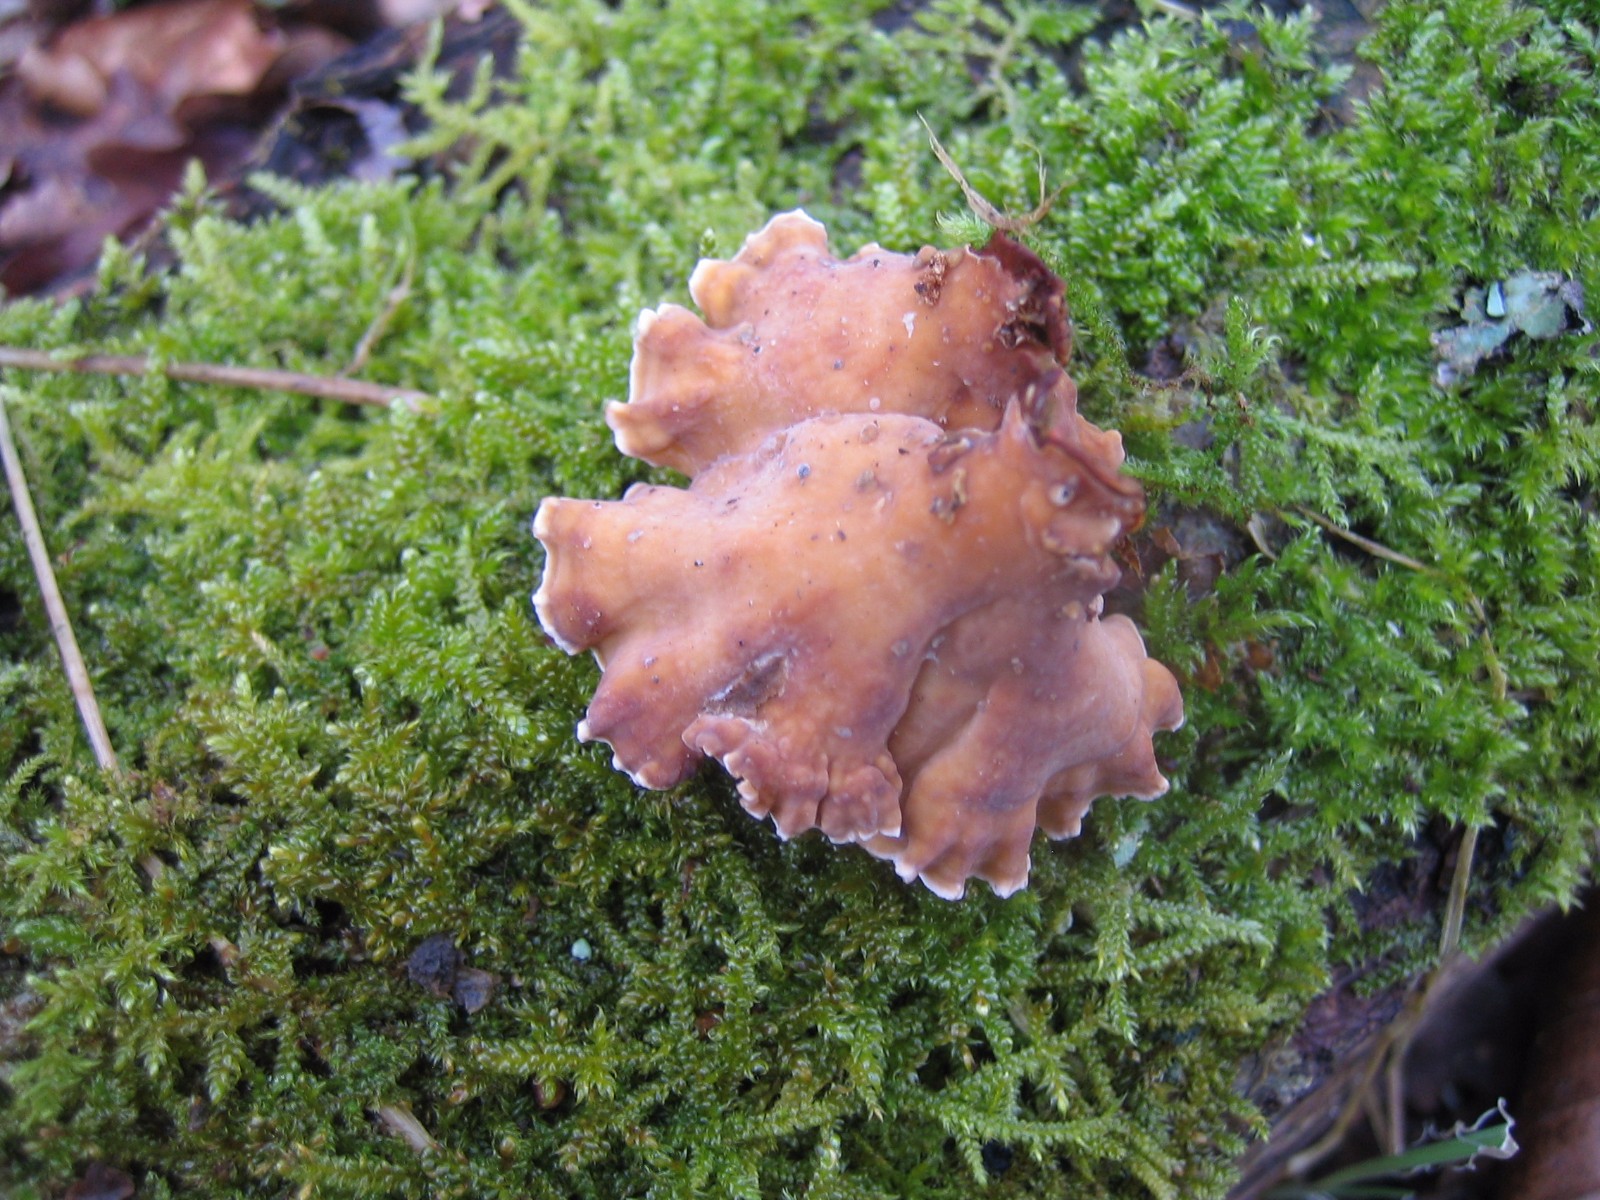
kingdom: Fungi
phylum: Basidiomycota
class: Agaricomycetes
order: Russulales
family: Stereaceae
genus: Stereum
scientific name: Stereum hirsutum
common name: håret lædersvamp
